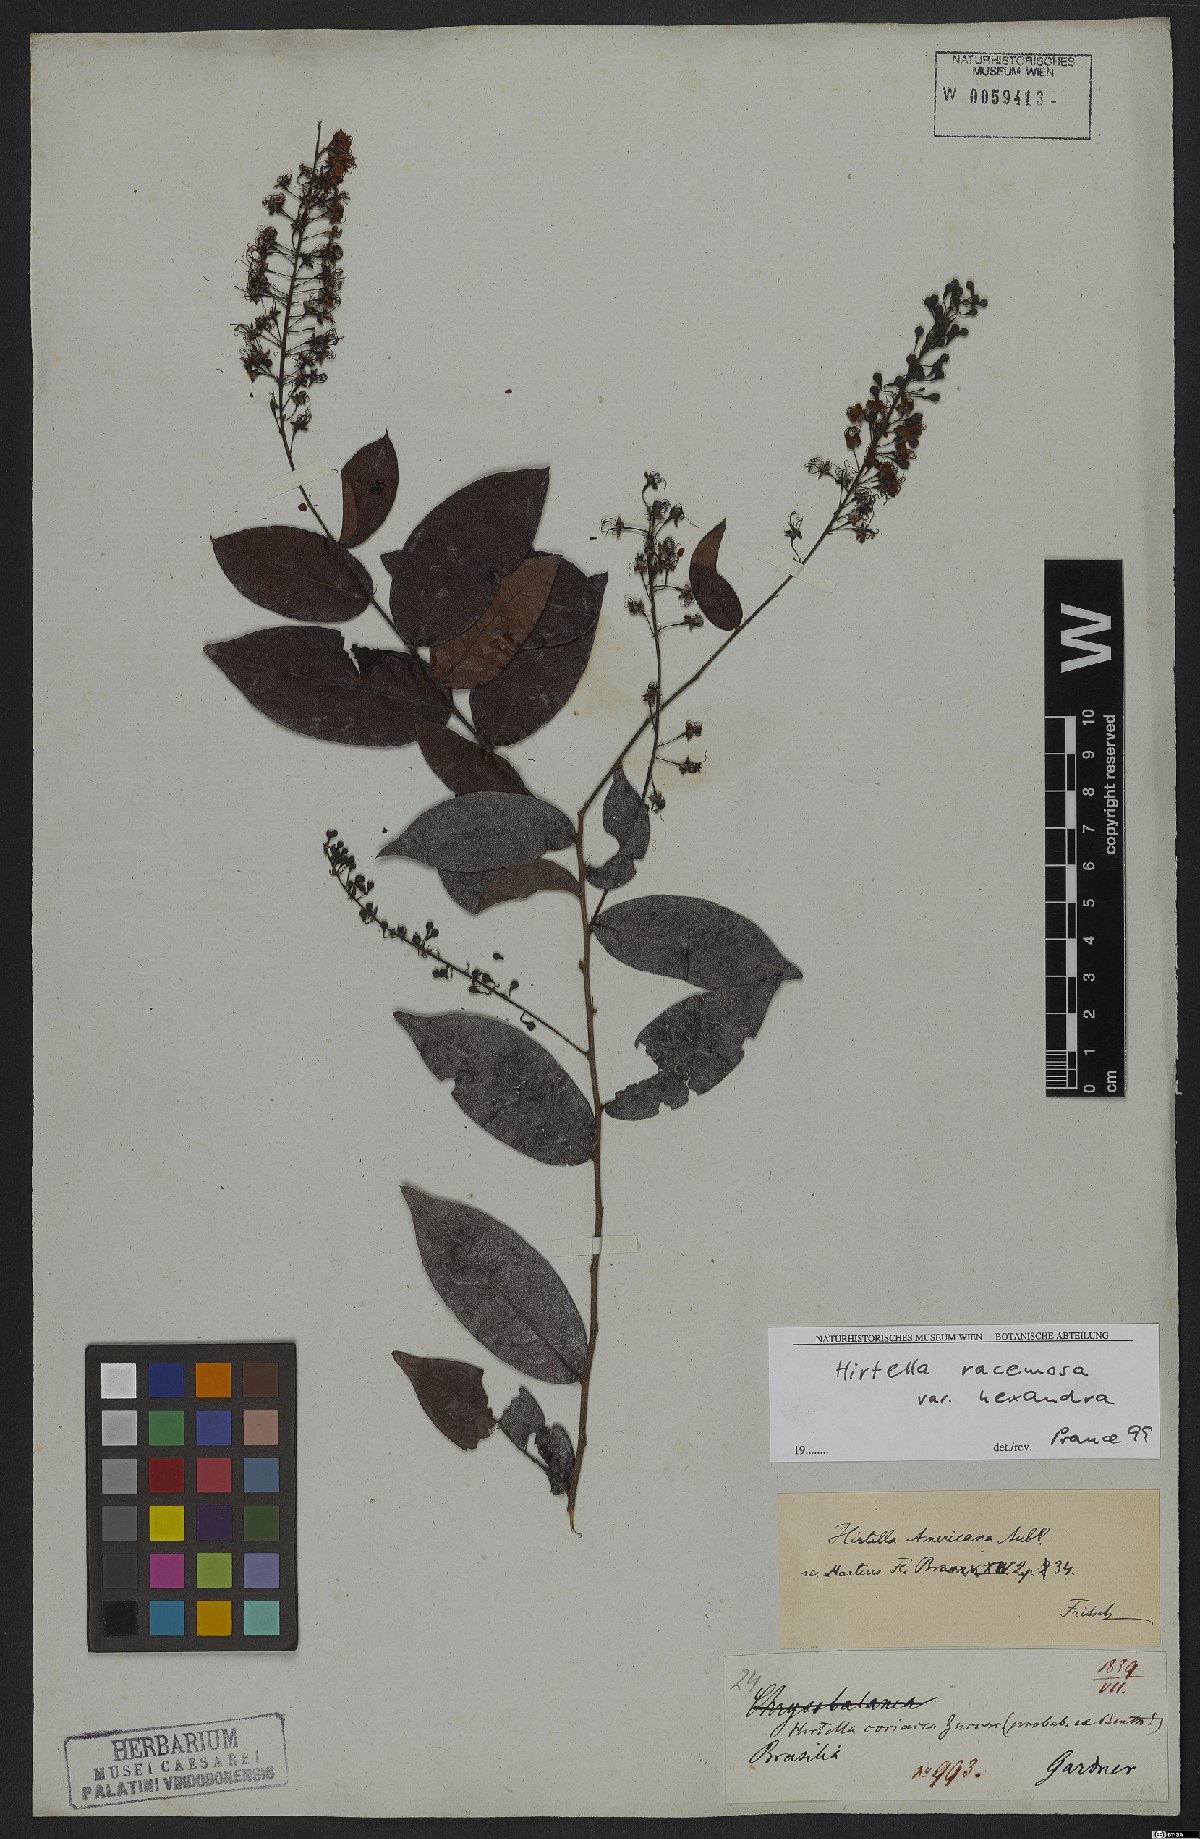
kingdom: Plantae
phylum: Tracheophyta
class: Magnoliopsida
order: Malpighiales
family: Chrysobalanaceae
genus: Hirtella
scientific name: Hirtella racemosa
